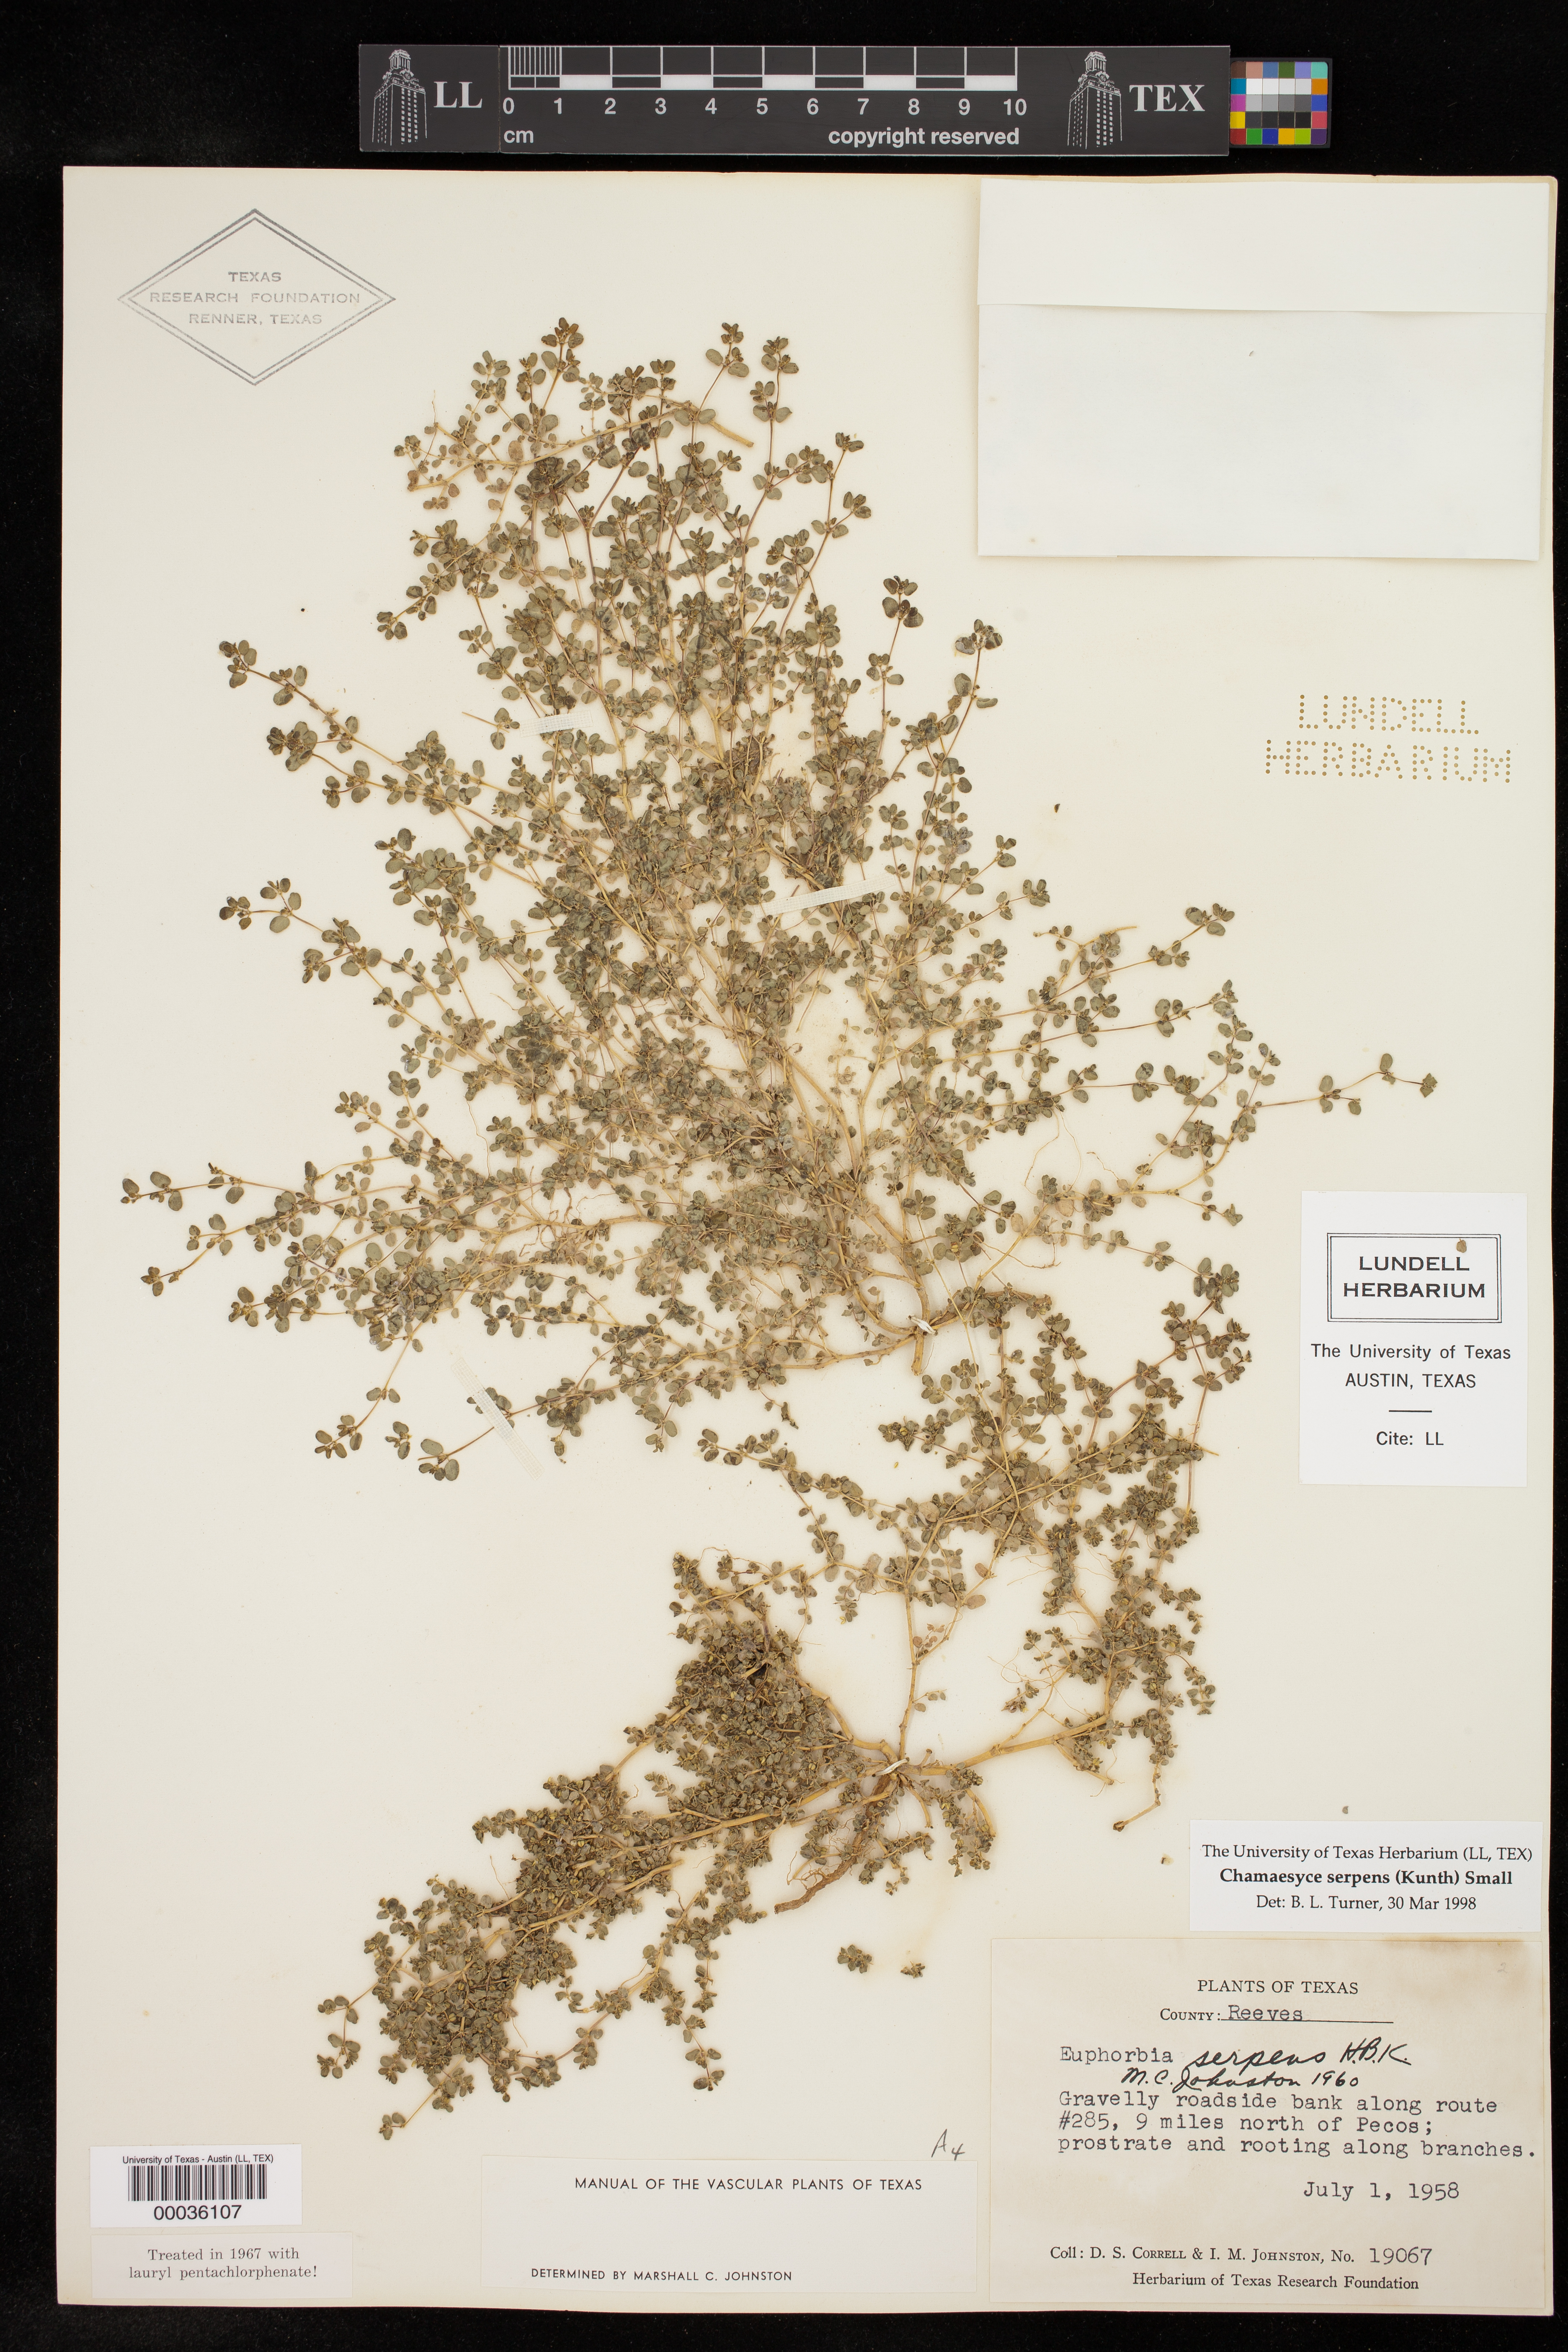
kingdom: Plantae
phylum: Tracheophyta
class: Magnoliopsida
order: Malpighiales
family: Euphorbiaceae
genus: Euphorbia
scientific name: Euphorbia serpens
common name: Matted sandmat
